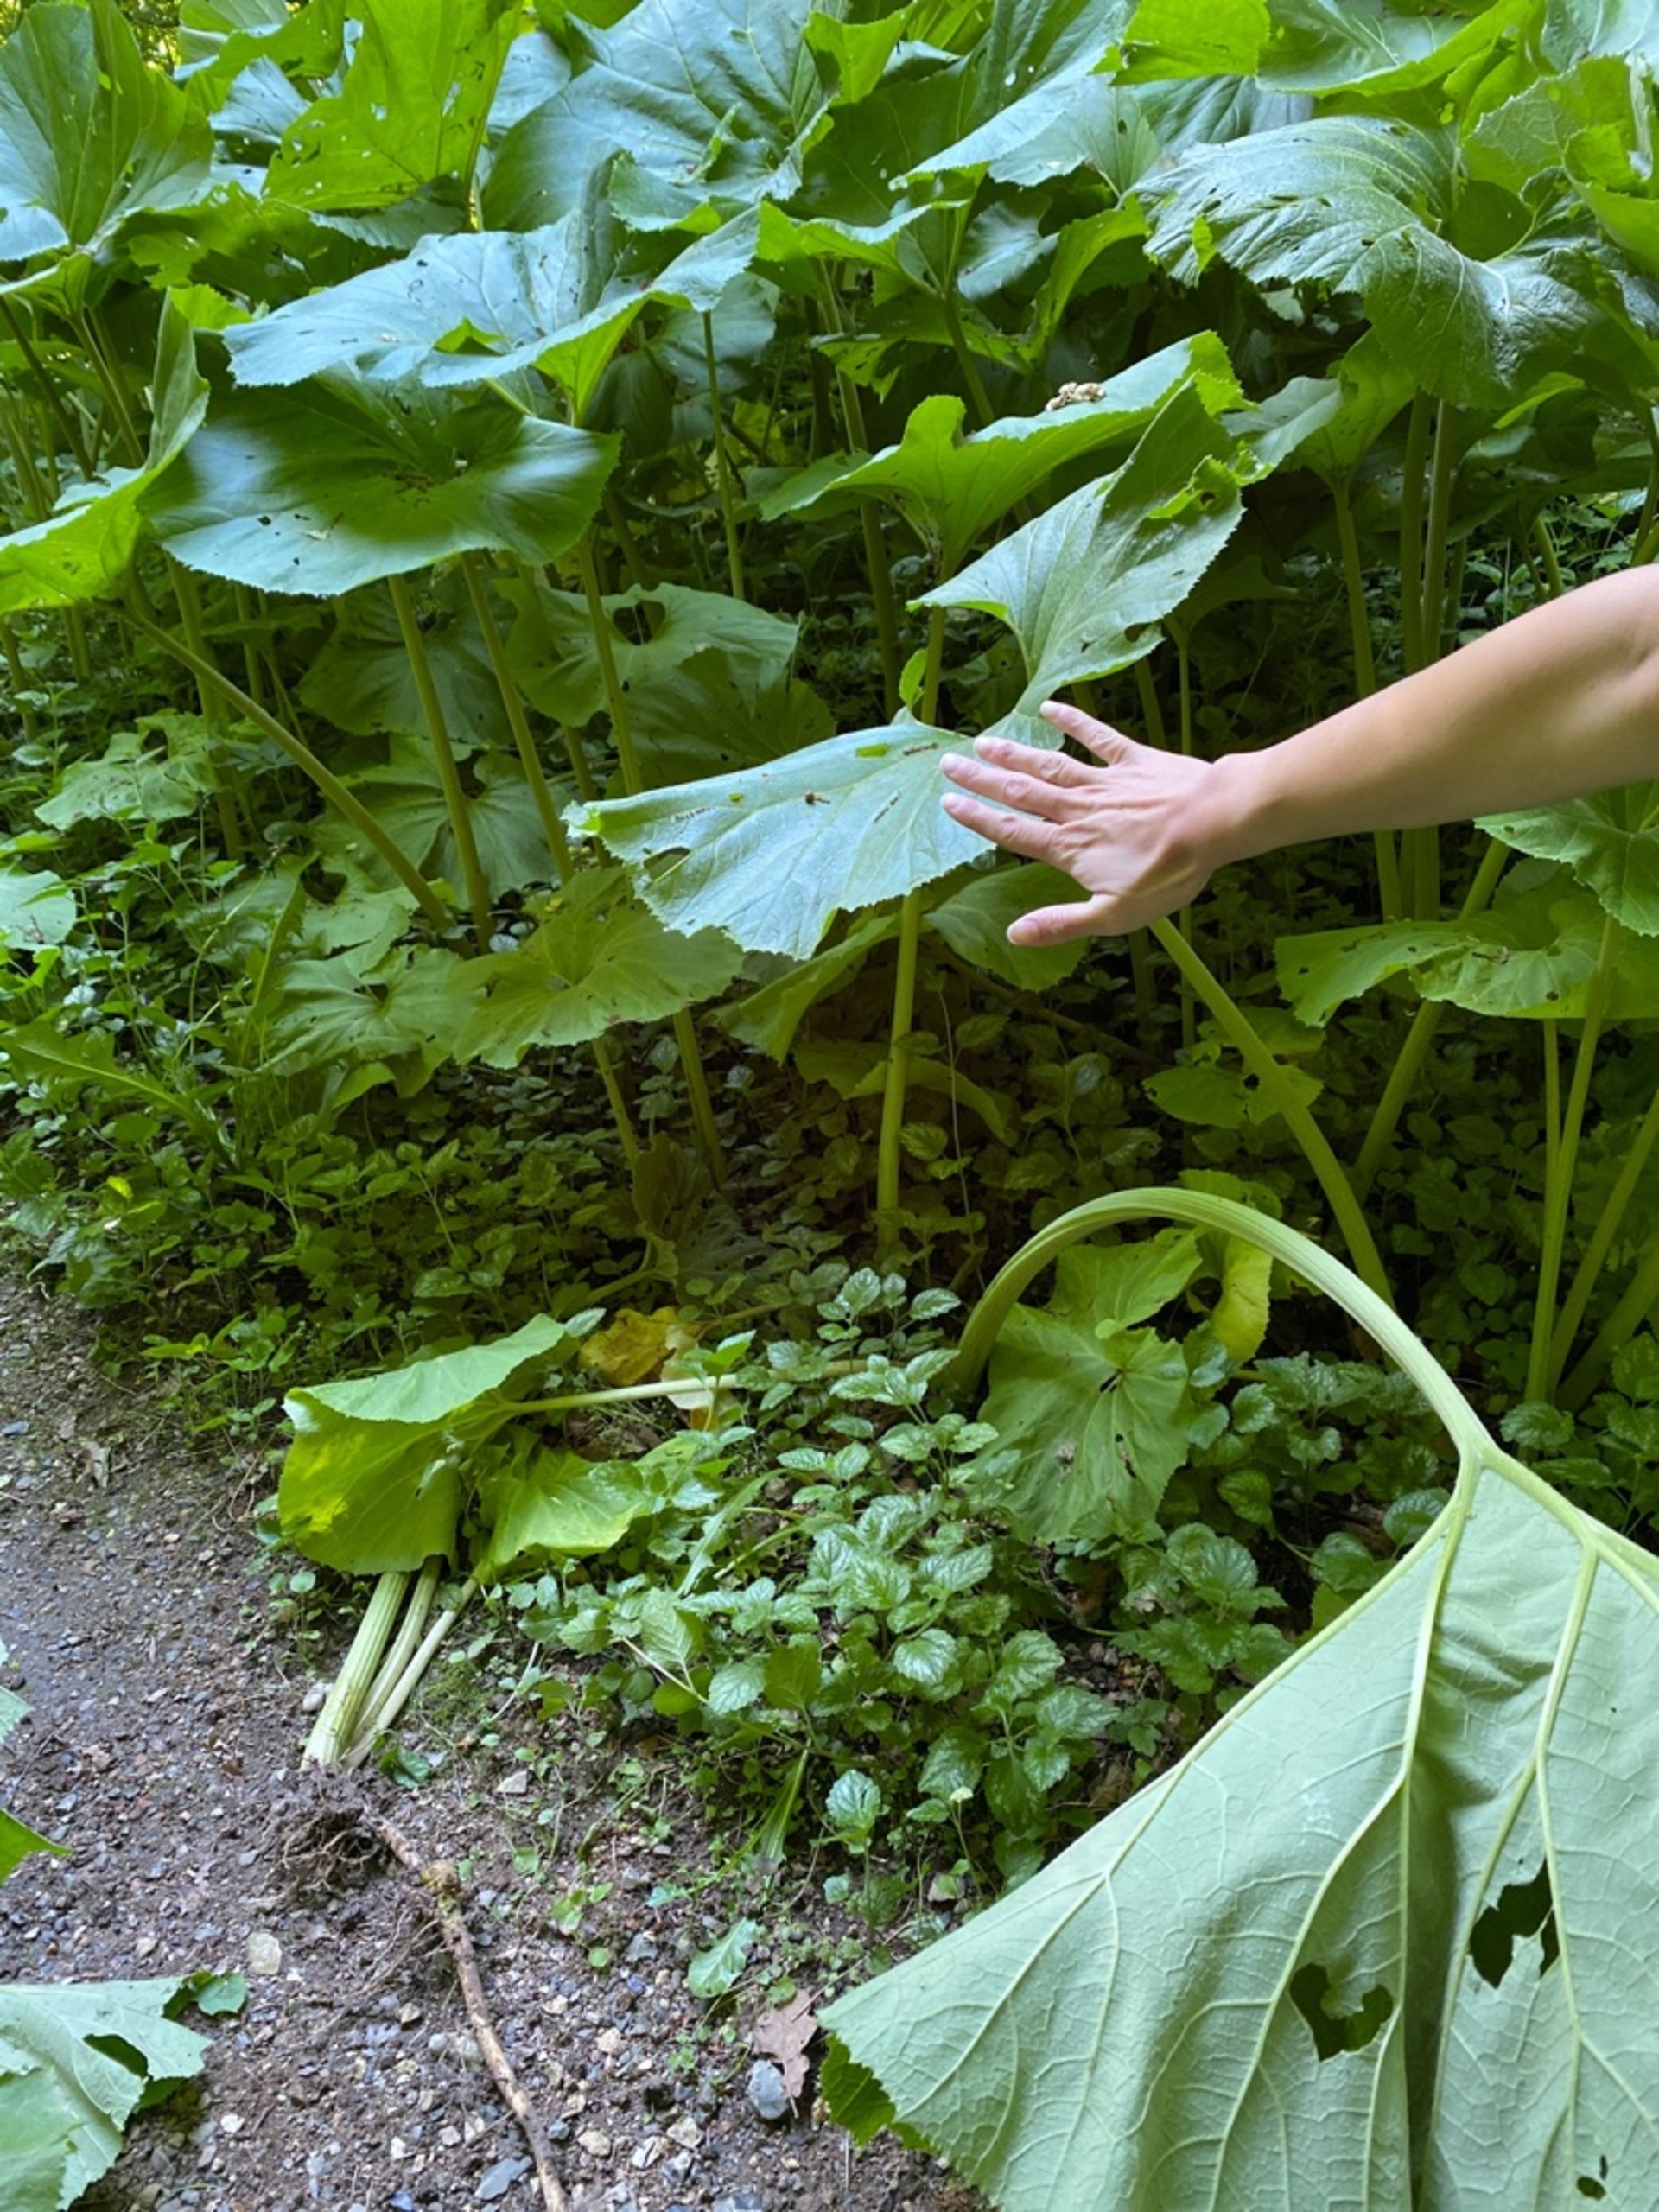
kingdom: Plantae
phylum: Tracheophyta
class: Magnoliopsida
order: Asterales
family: Asteraceae
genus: Petasites
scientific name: Petasites japonicus
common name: Japansk hestehov
